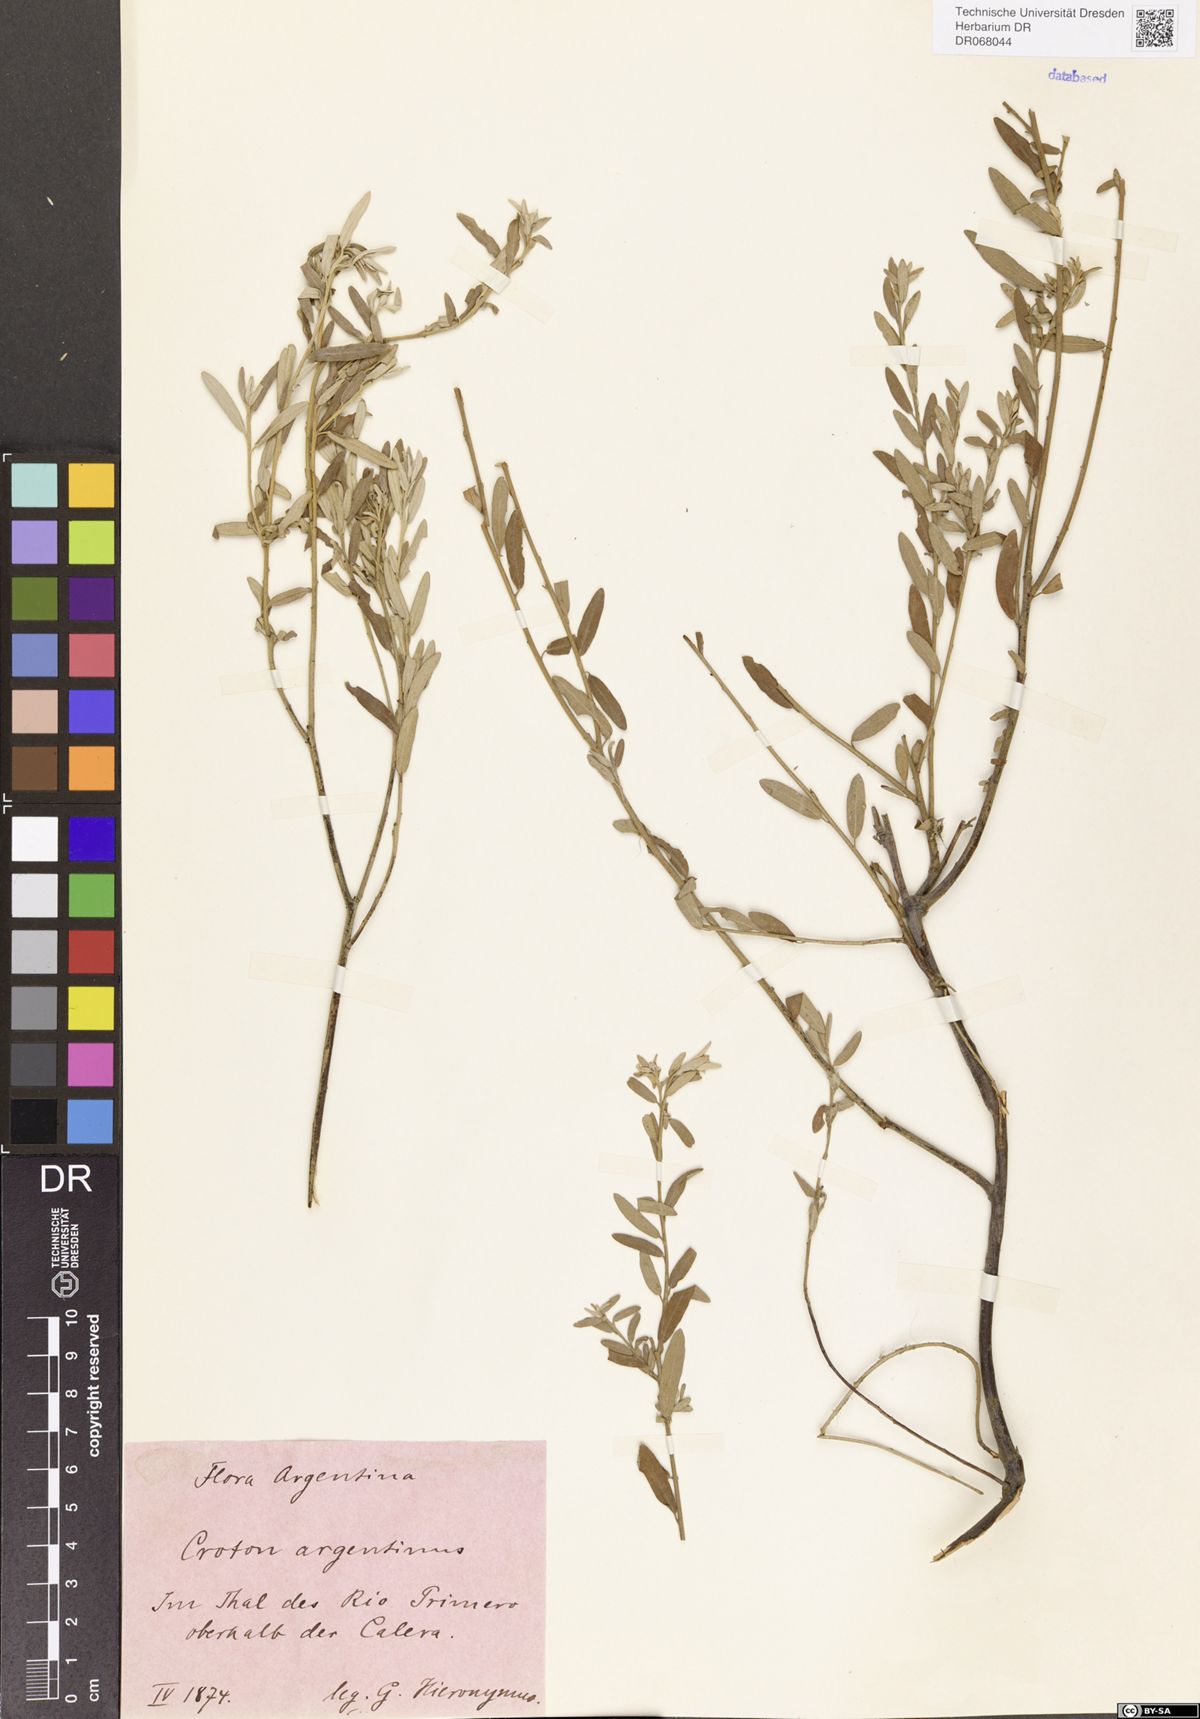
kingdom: Plantae
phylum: Tracheophyta
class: Magnoliopsida
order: Malpighiales
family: Euphorbiaceae
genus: Croton
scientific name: Croton argentinus
